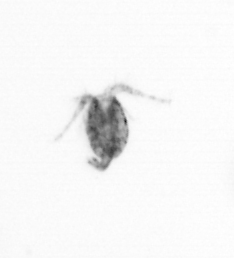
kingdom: Animalia
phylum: Arthropoda
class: Copepoda
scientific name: Copepoda
